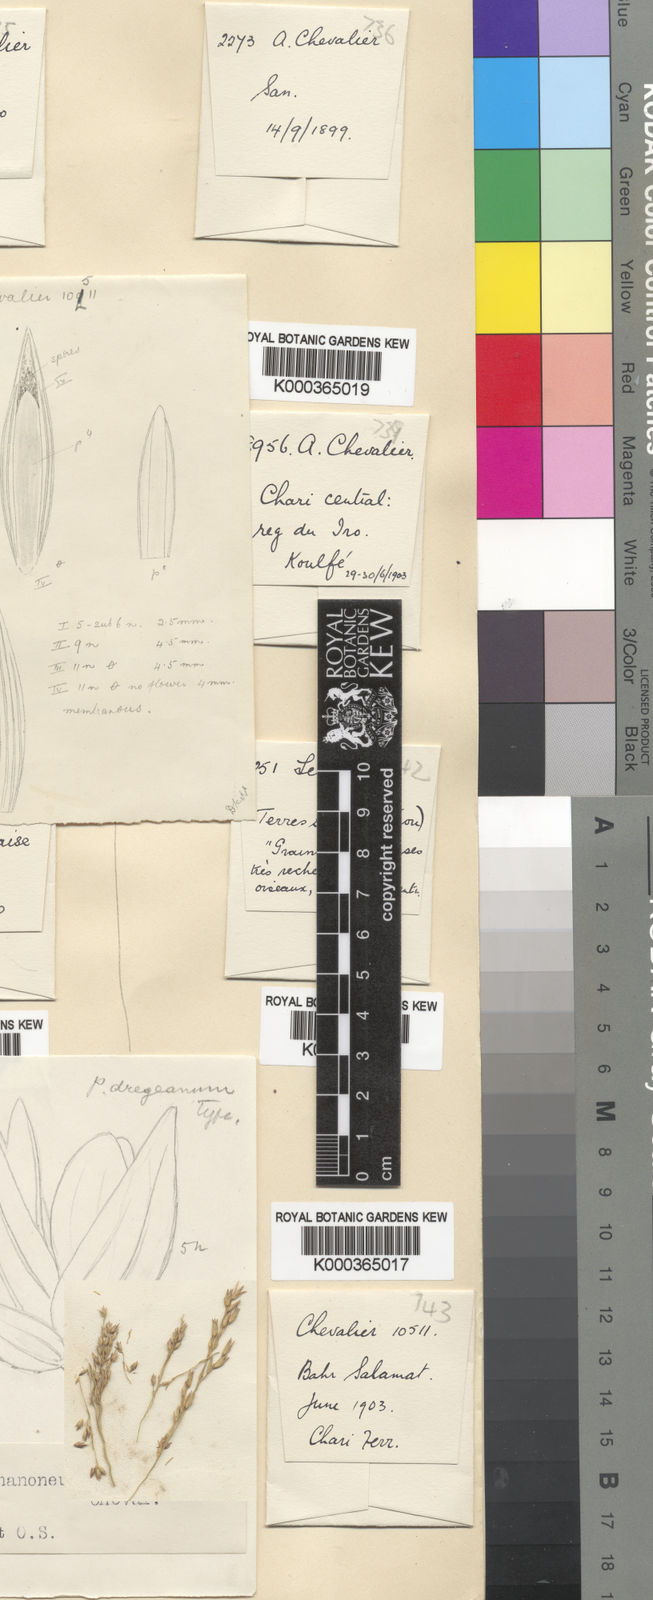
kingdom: Plantae
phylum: Tracheophyta
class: Liliopsida
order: Poales
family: Poaceae
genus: Panicum
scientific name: Panicum fluviicola
